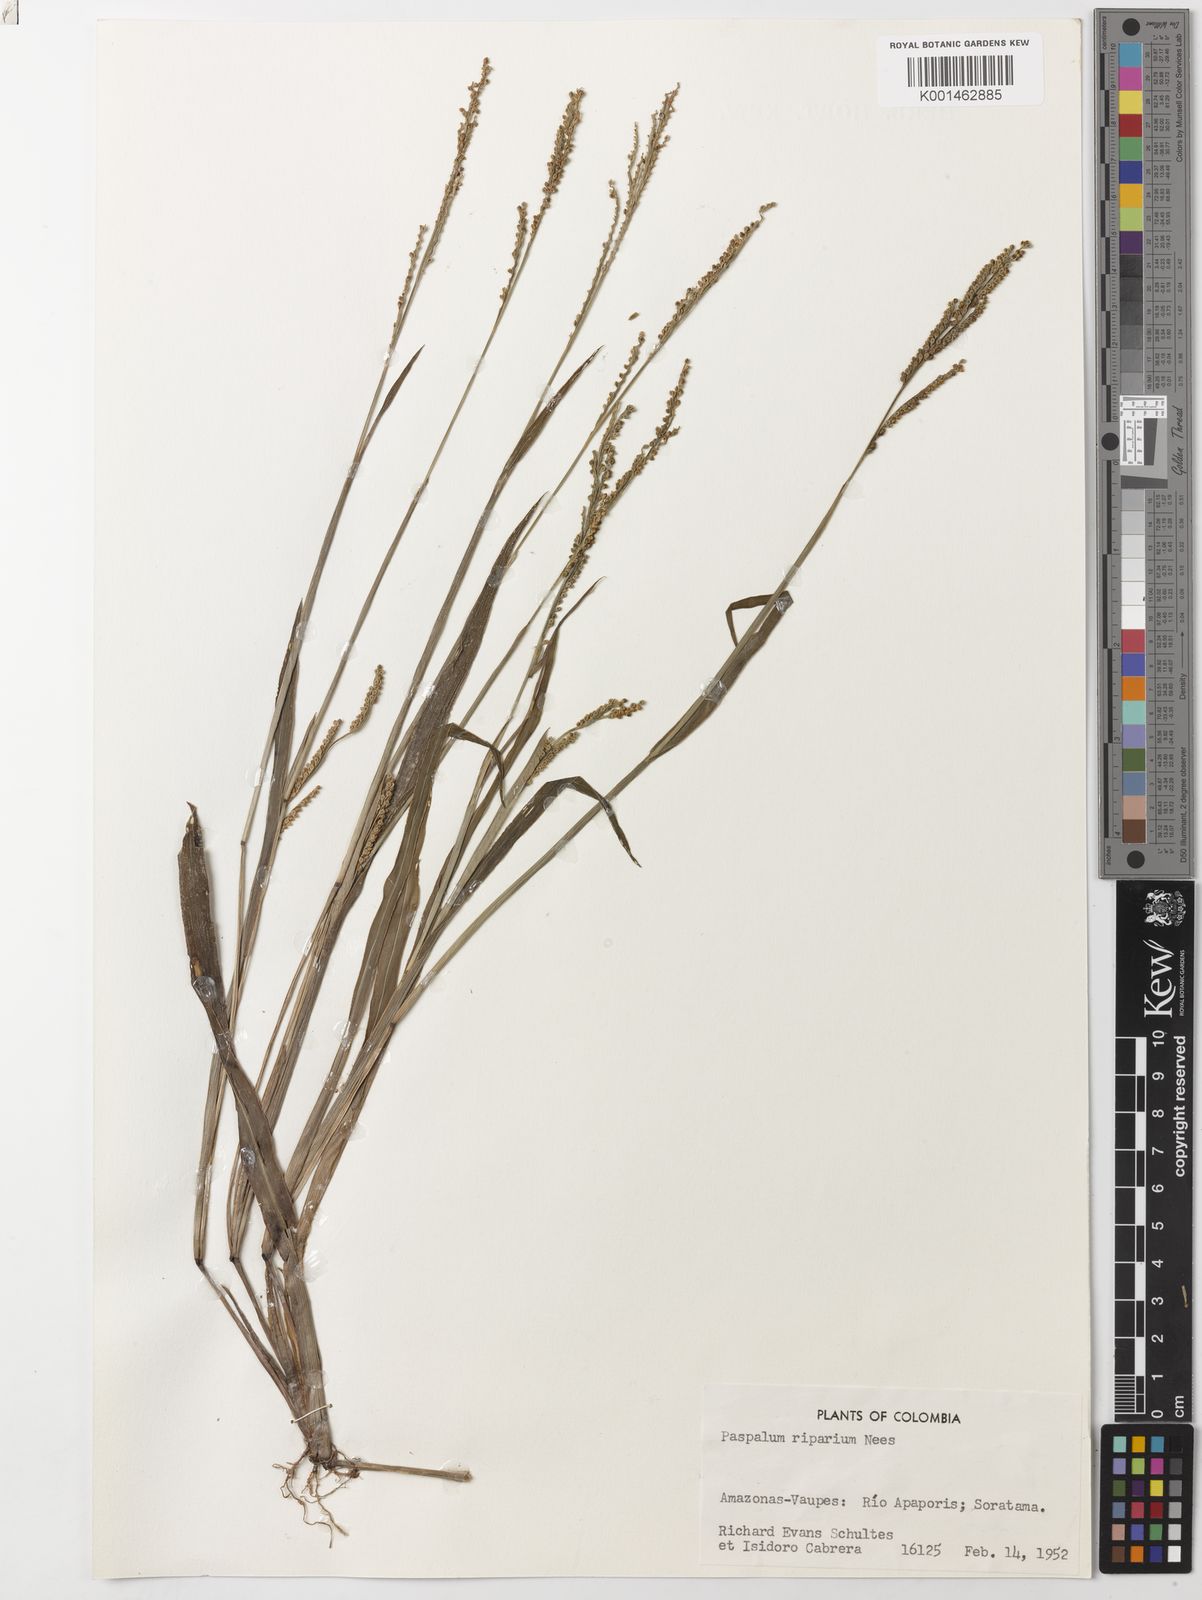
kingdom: Plantae
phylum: Tracheophyta
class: Liliopsida
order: Poales
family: Poaceae
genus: Paspalum
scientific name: Paspalum riparium
